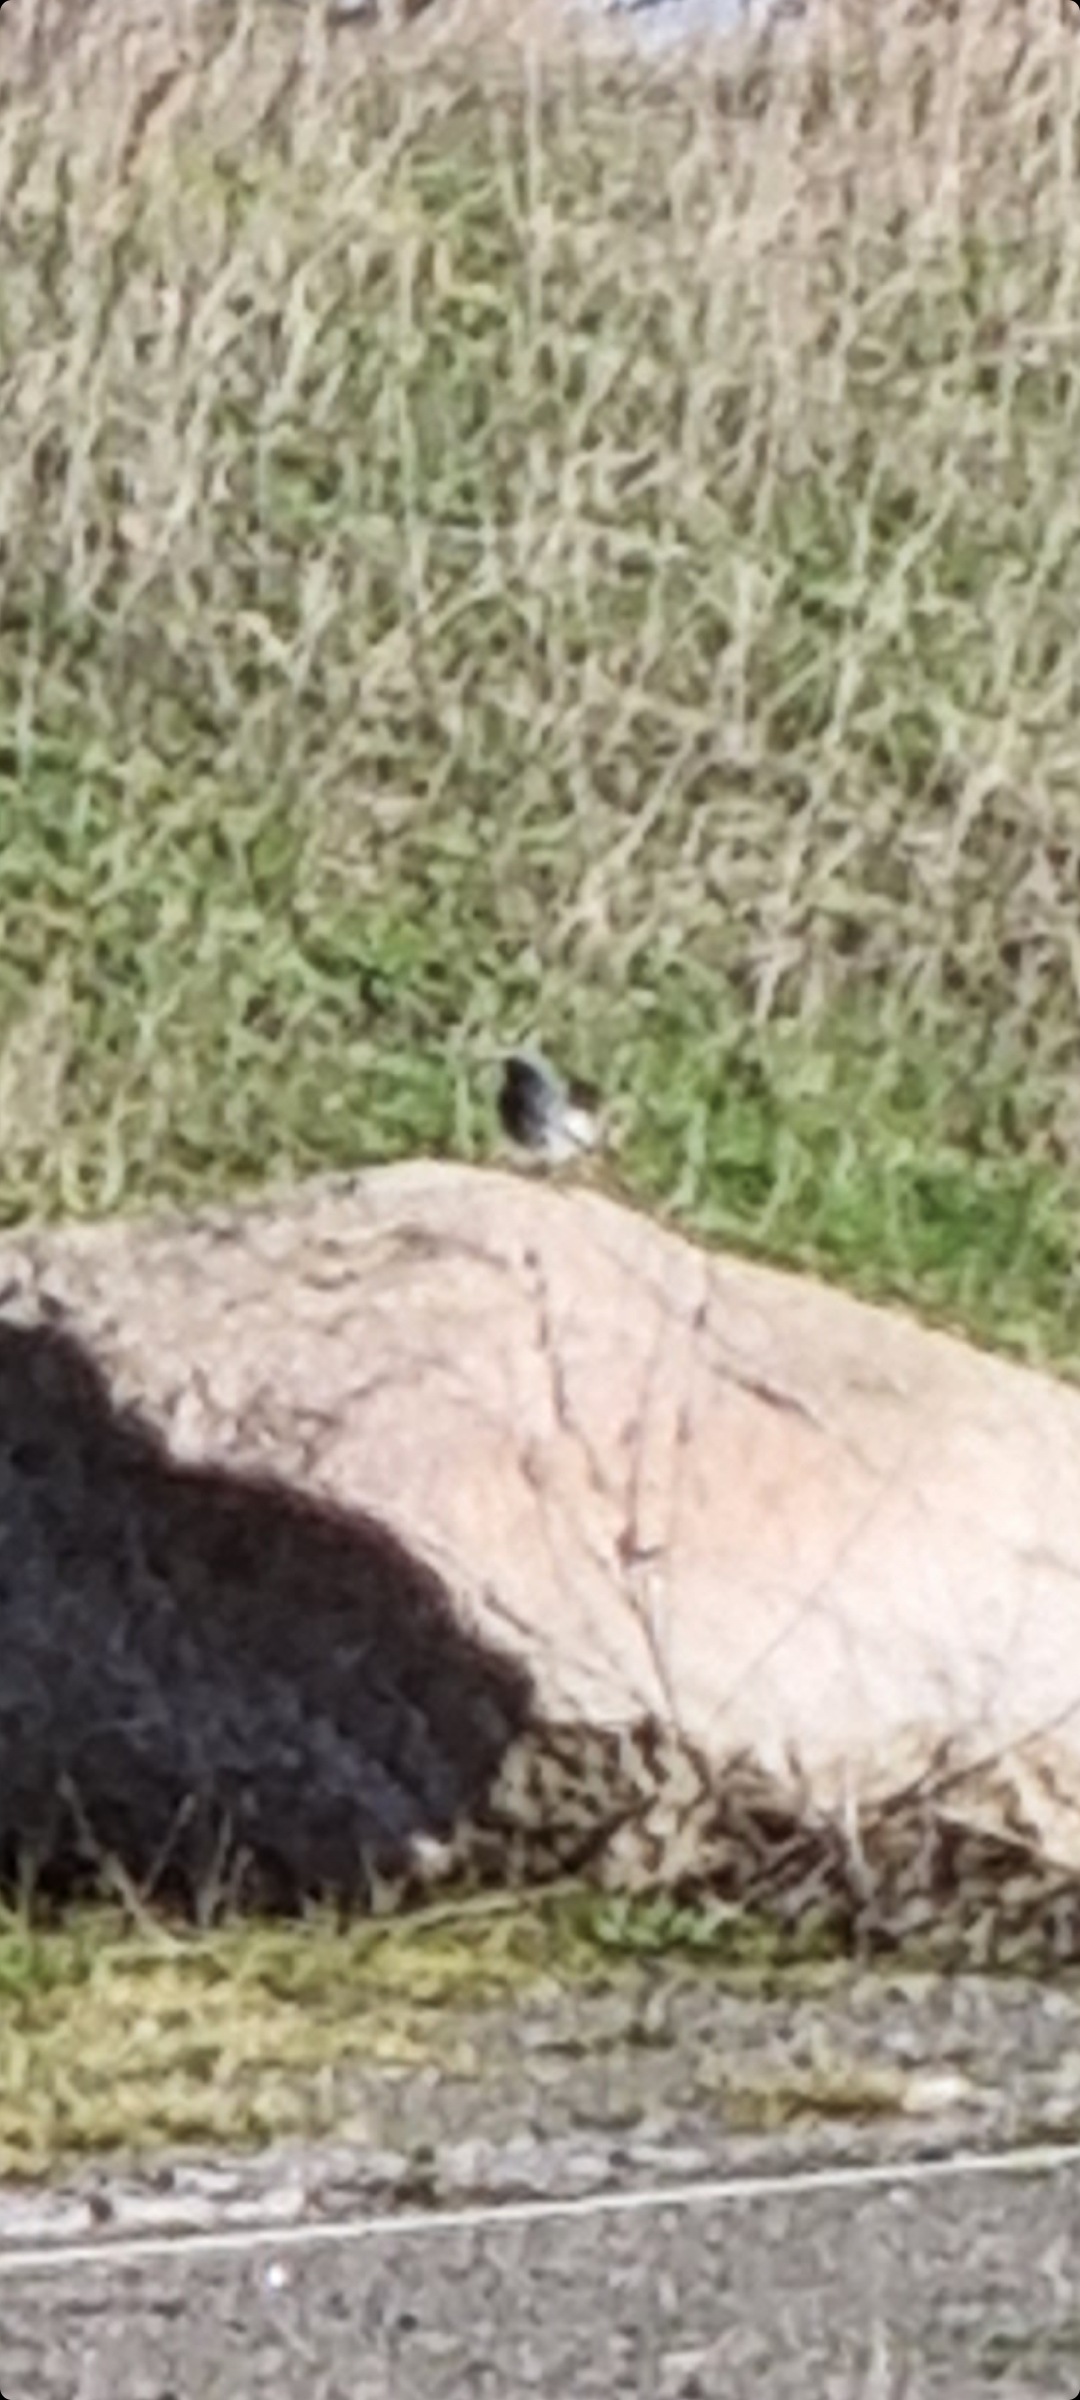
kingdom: Animalia
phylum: Chordata
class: Aves
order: Passeriformes
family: Muscicapidae
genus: Phoenicurus
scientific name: Phoenicurus ochruros
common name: Husrødstjert
